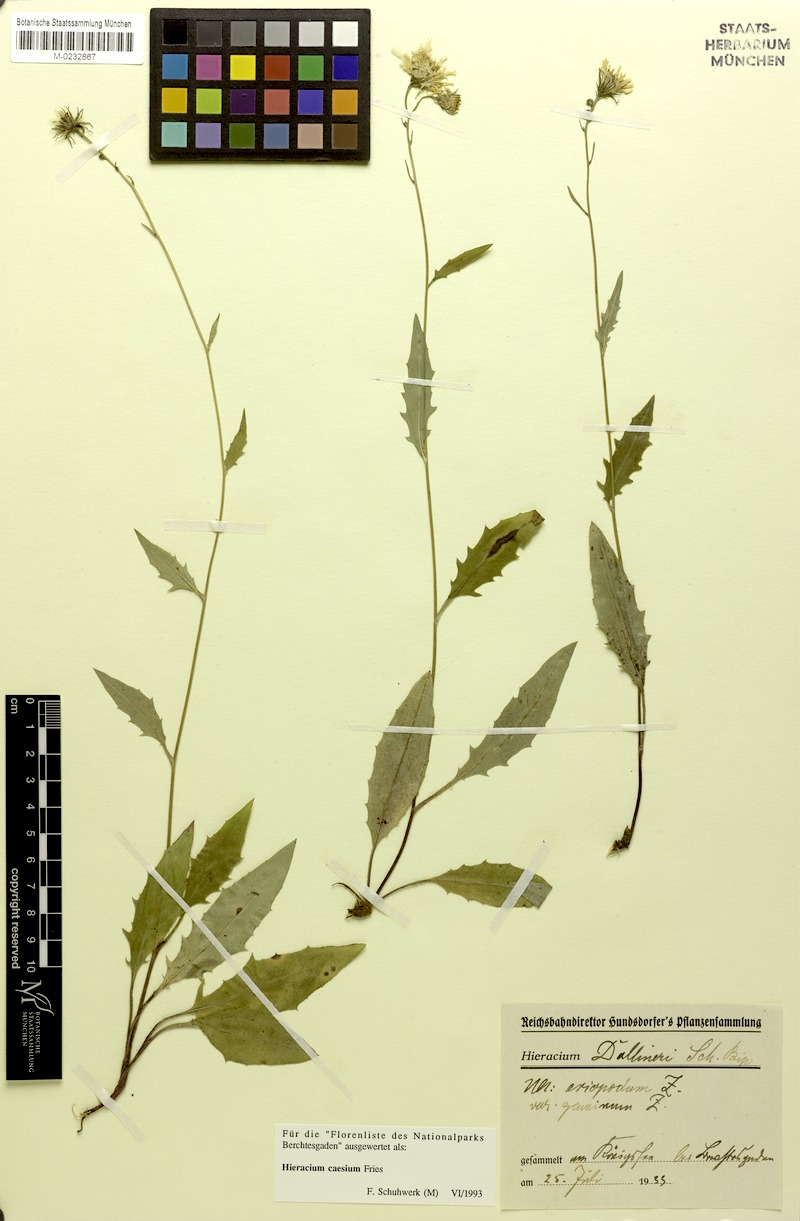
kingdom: Plantae
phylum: Tracheophyta
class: Magnoliopsida
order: Asterales
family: Asteraceae
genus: Hieracium
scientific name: Hieracium caesium
